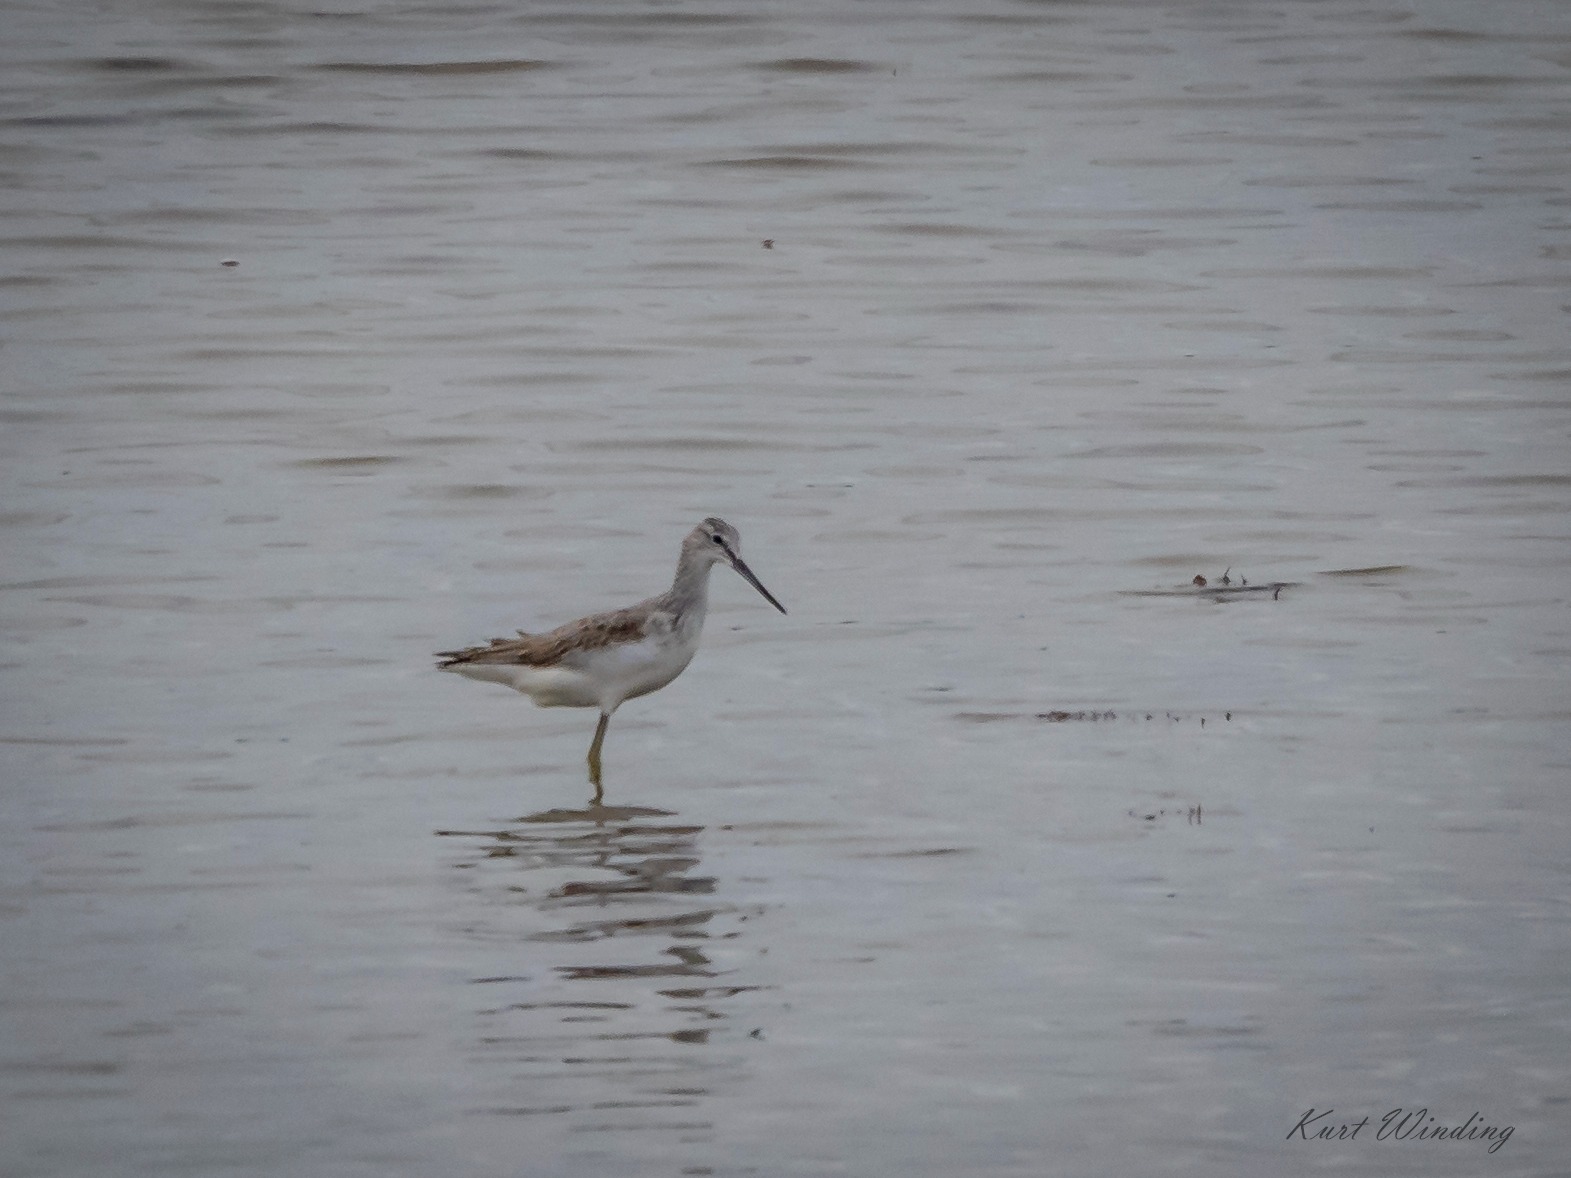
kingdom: Animalia
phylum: Chordata
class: Aves
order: Charadriiformes
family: Scolopacidae
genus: Tringa
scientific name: Tringa nebularia
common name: Hvidklire
